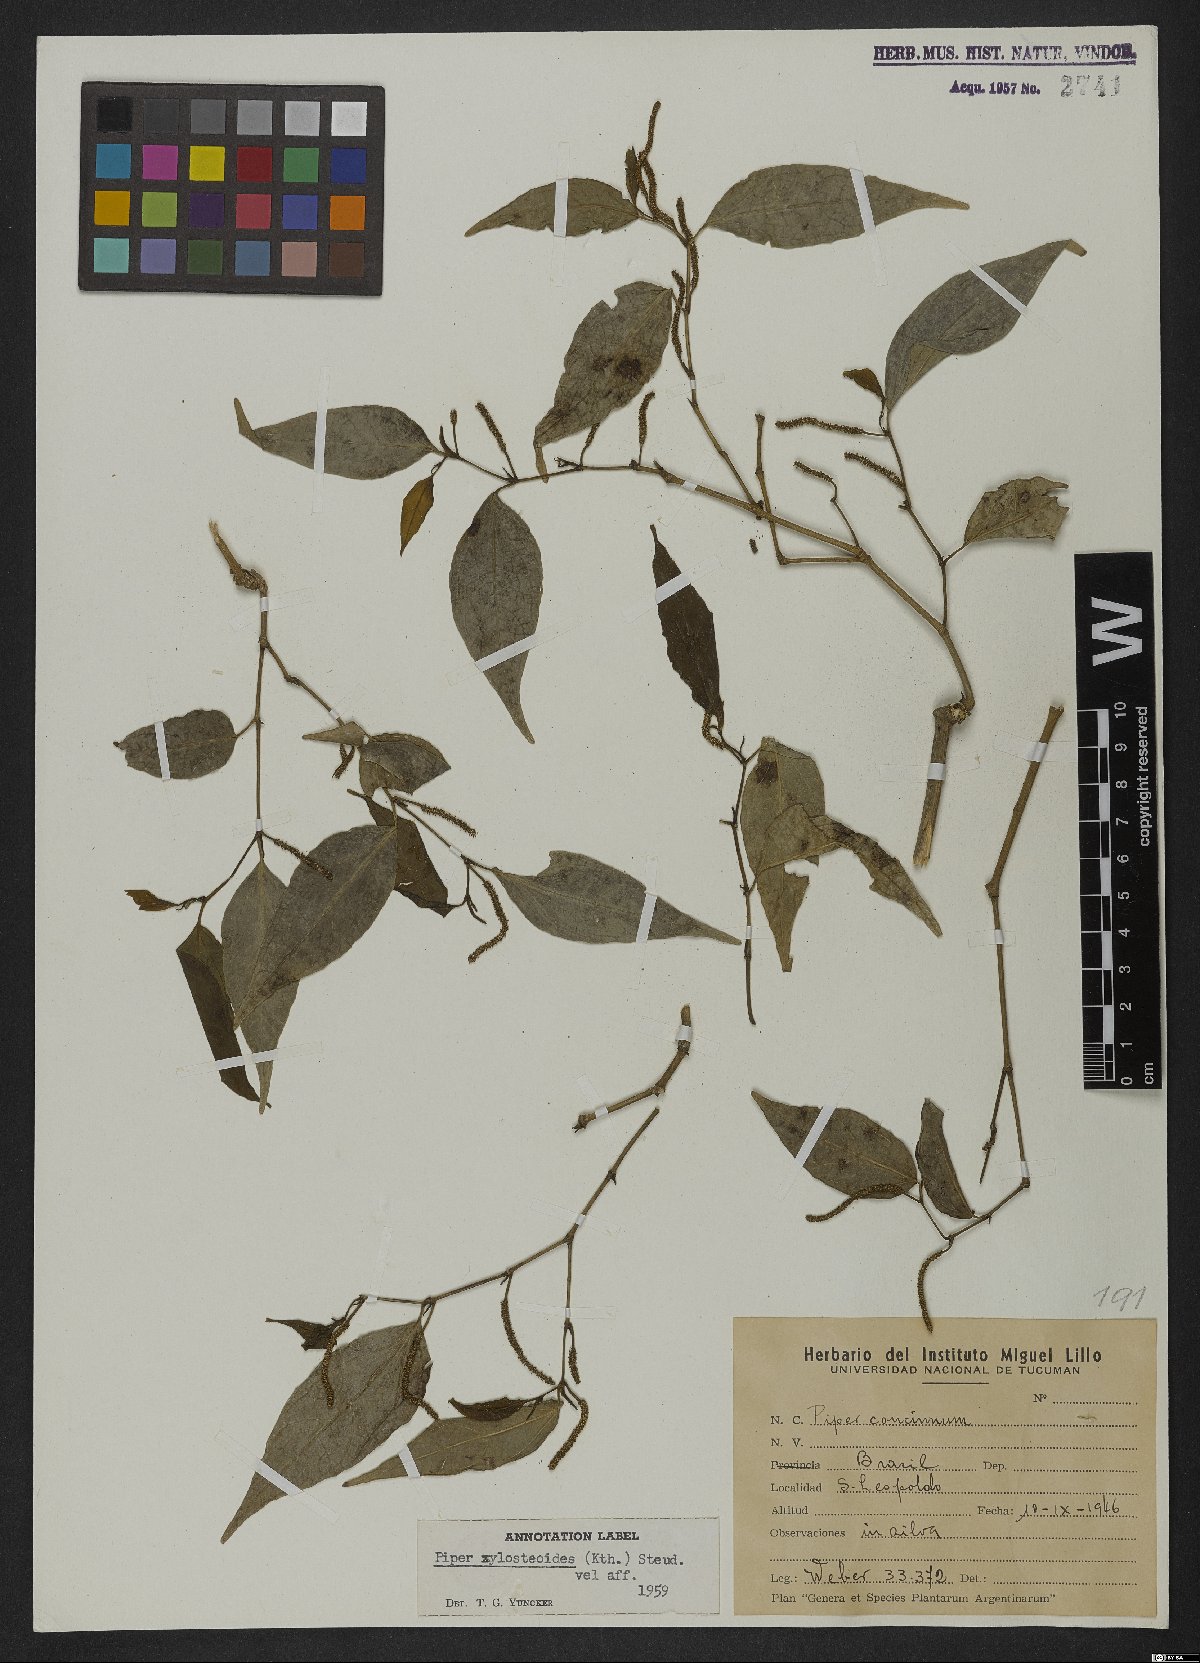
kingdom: Plantae
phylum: Tracheophyta
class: Magnoliopsida
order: Piperales
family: Piperaceae
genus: Piper
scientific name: Piper xylosteoides
